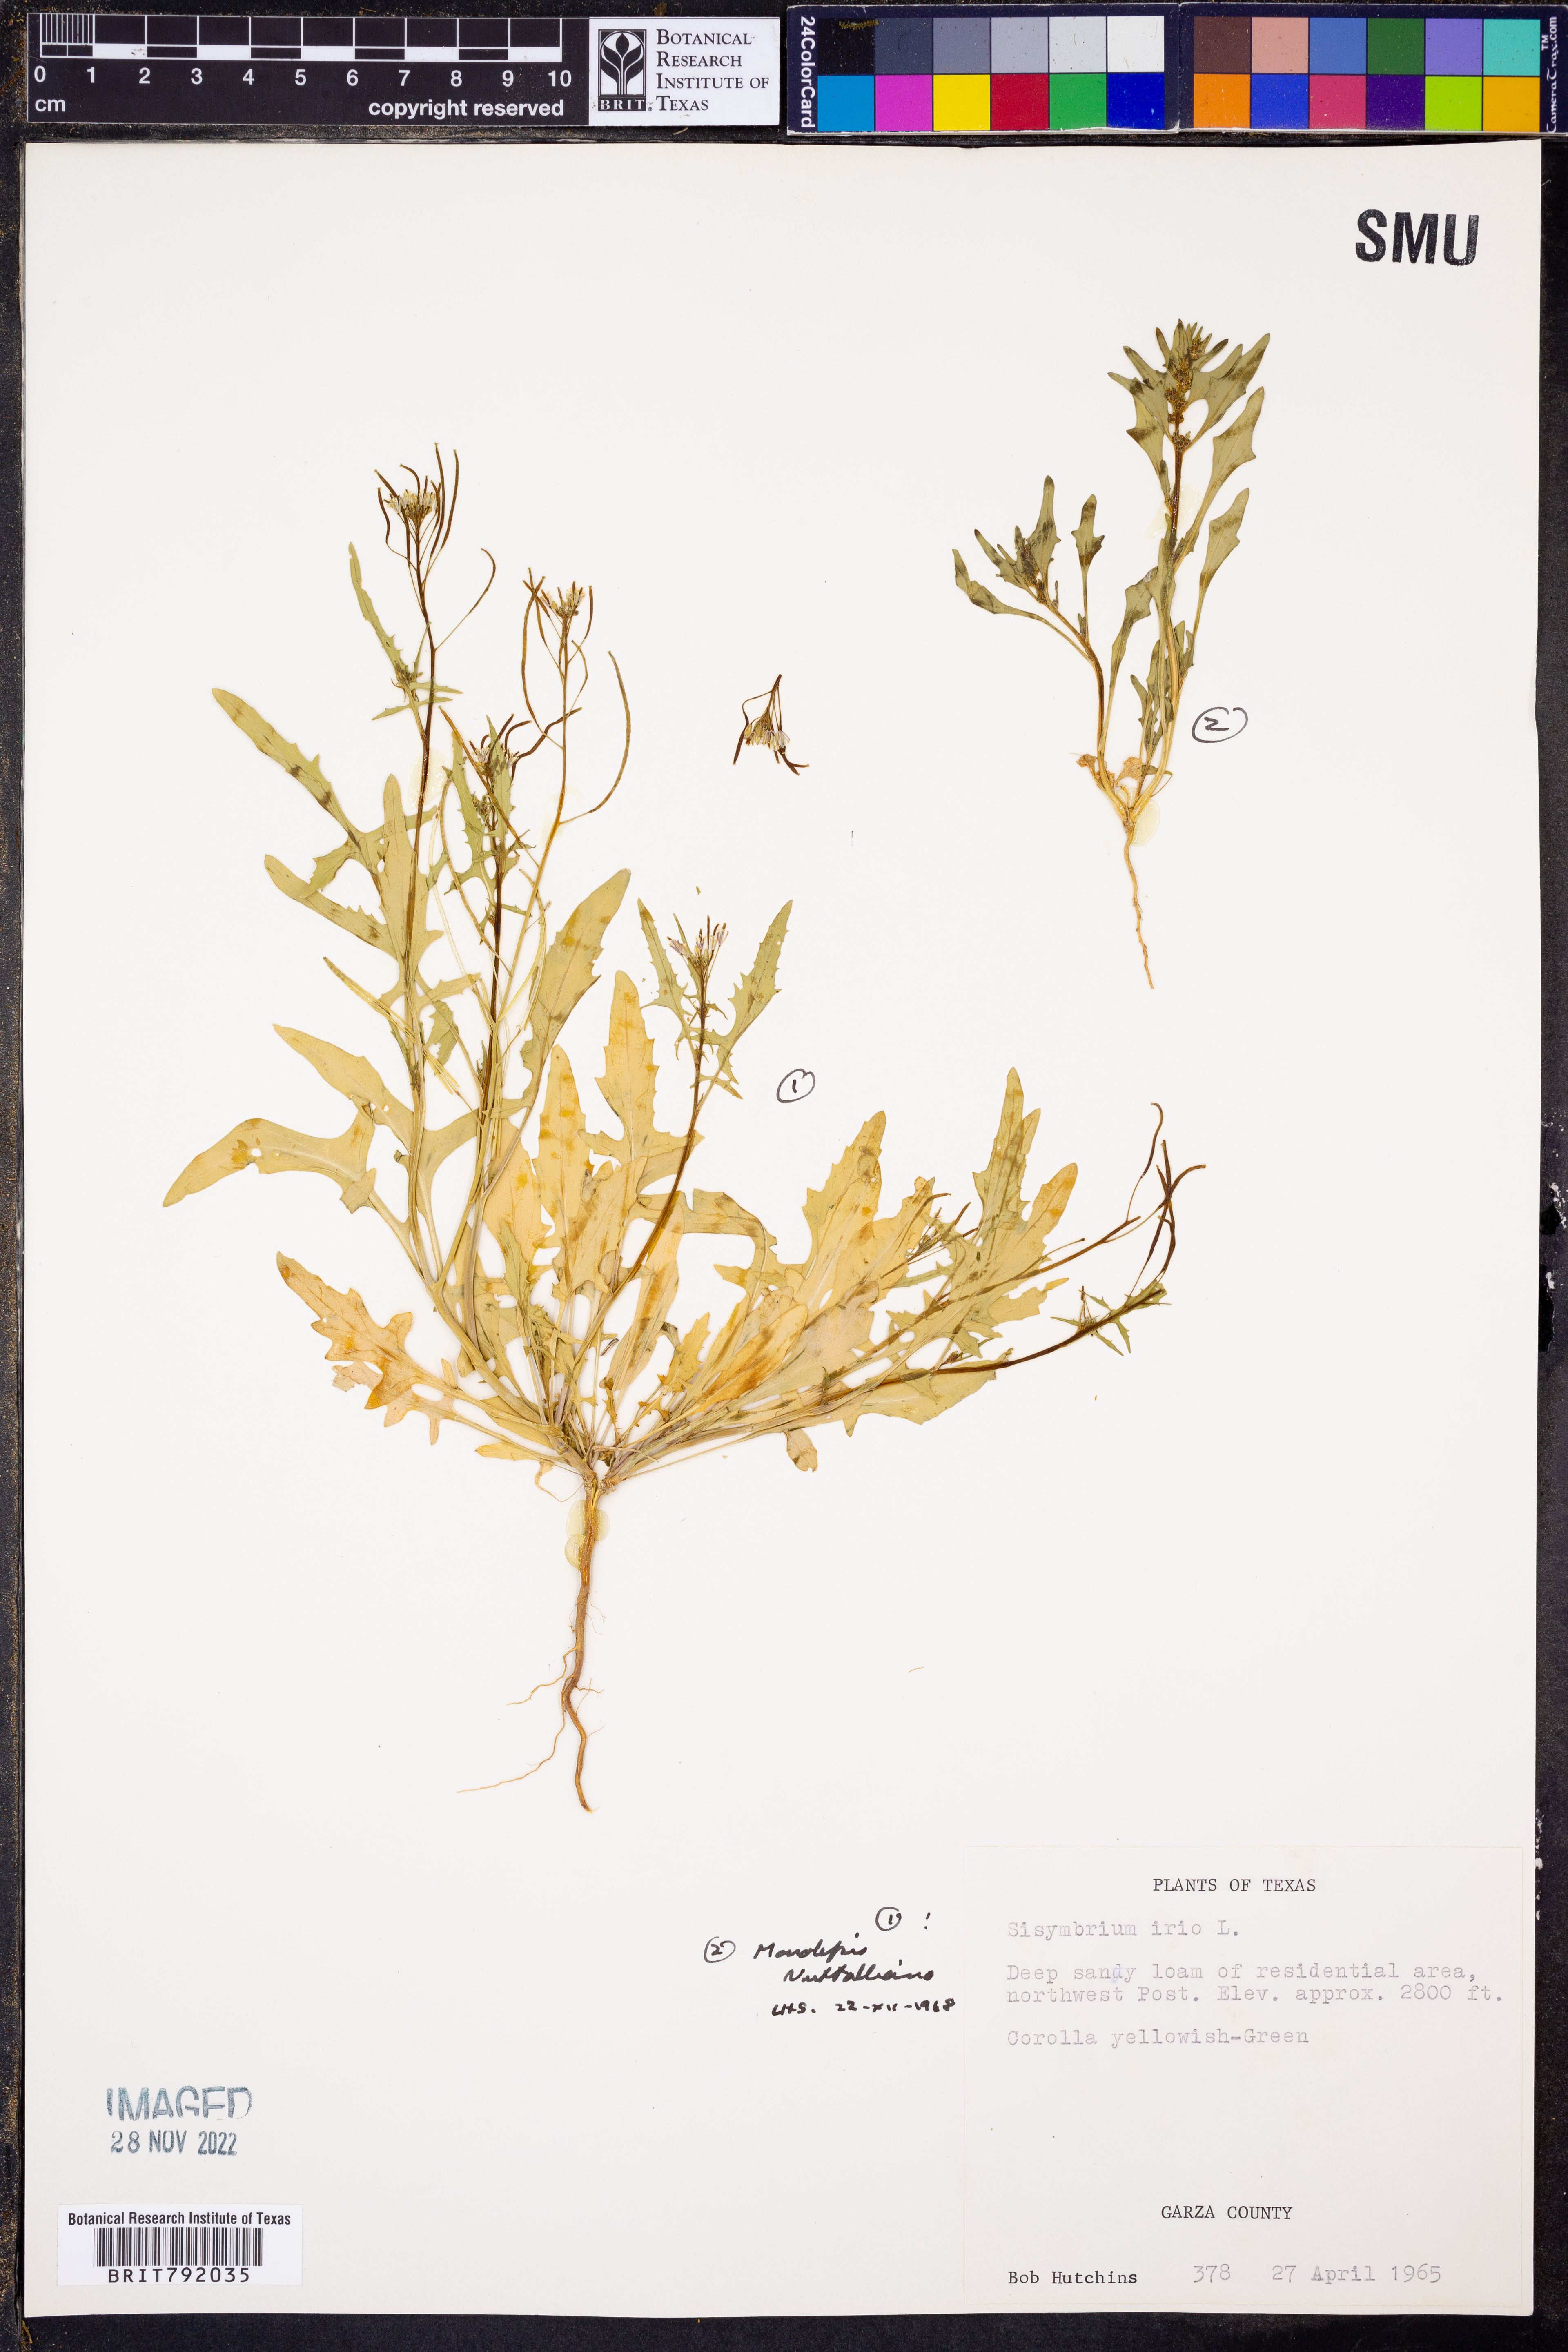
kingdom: Plantae
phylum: Tracheophyta
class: Magnoliopsida
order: Caryophyllales
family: Amaranthaceae
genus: Blitum
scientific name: Blitum nuttallianum
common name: Poverty-weed
